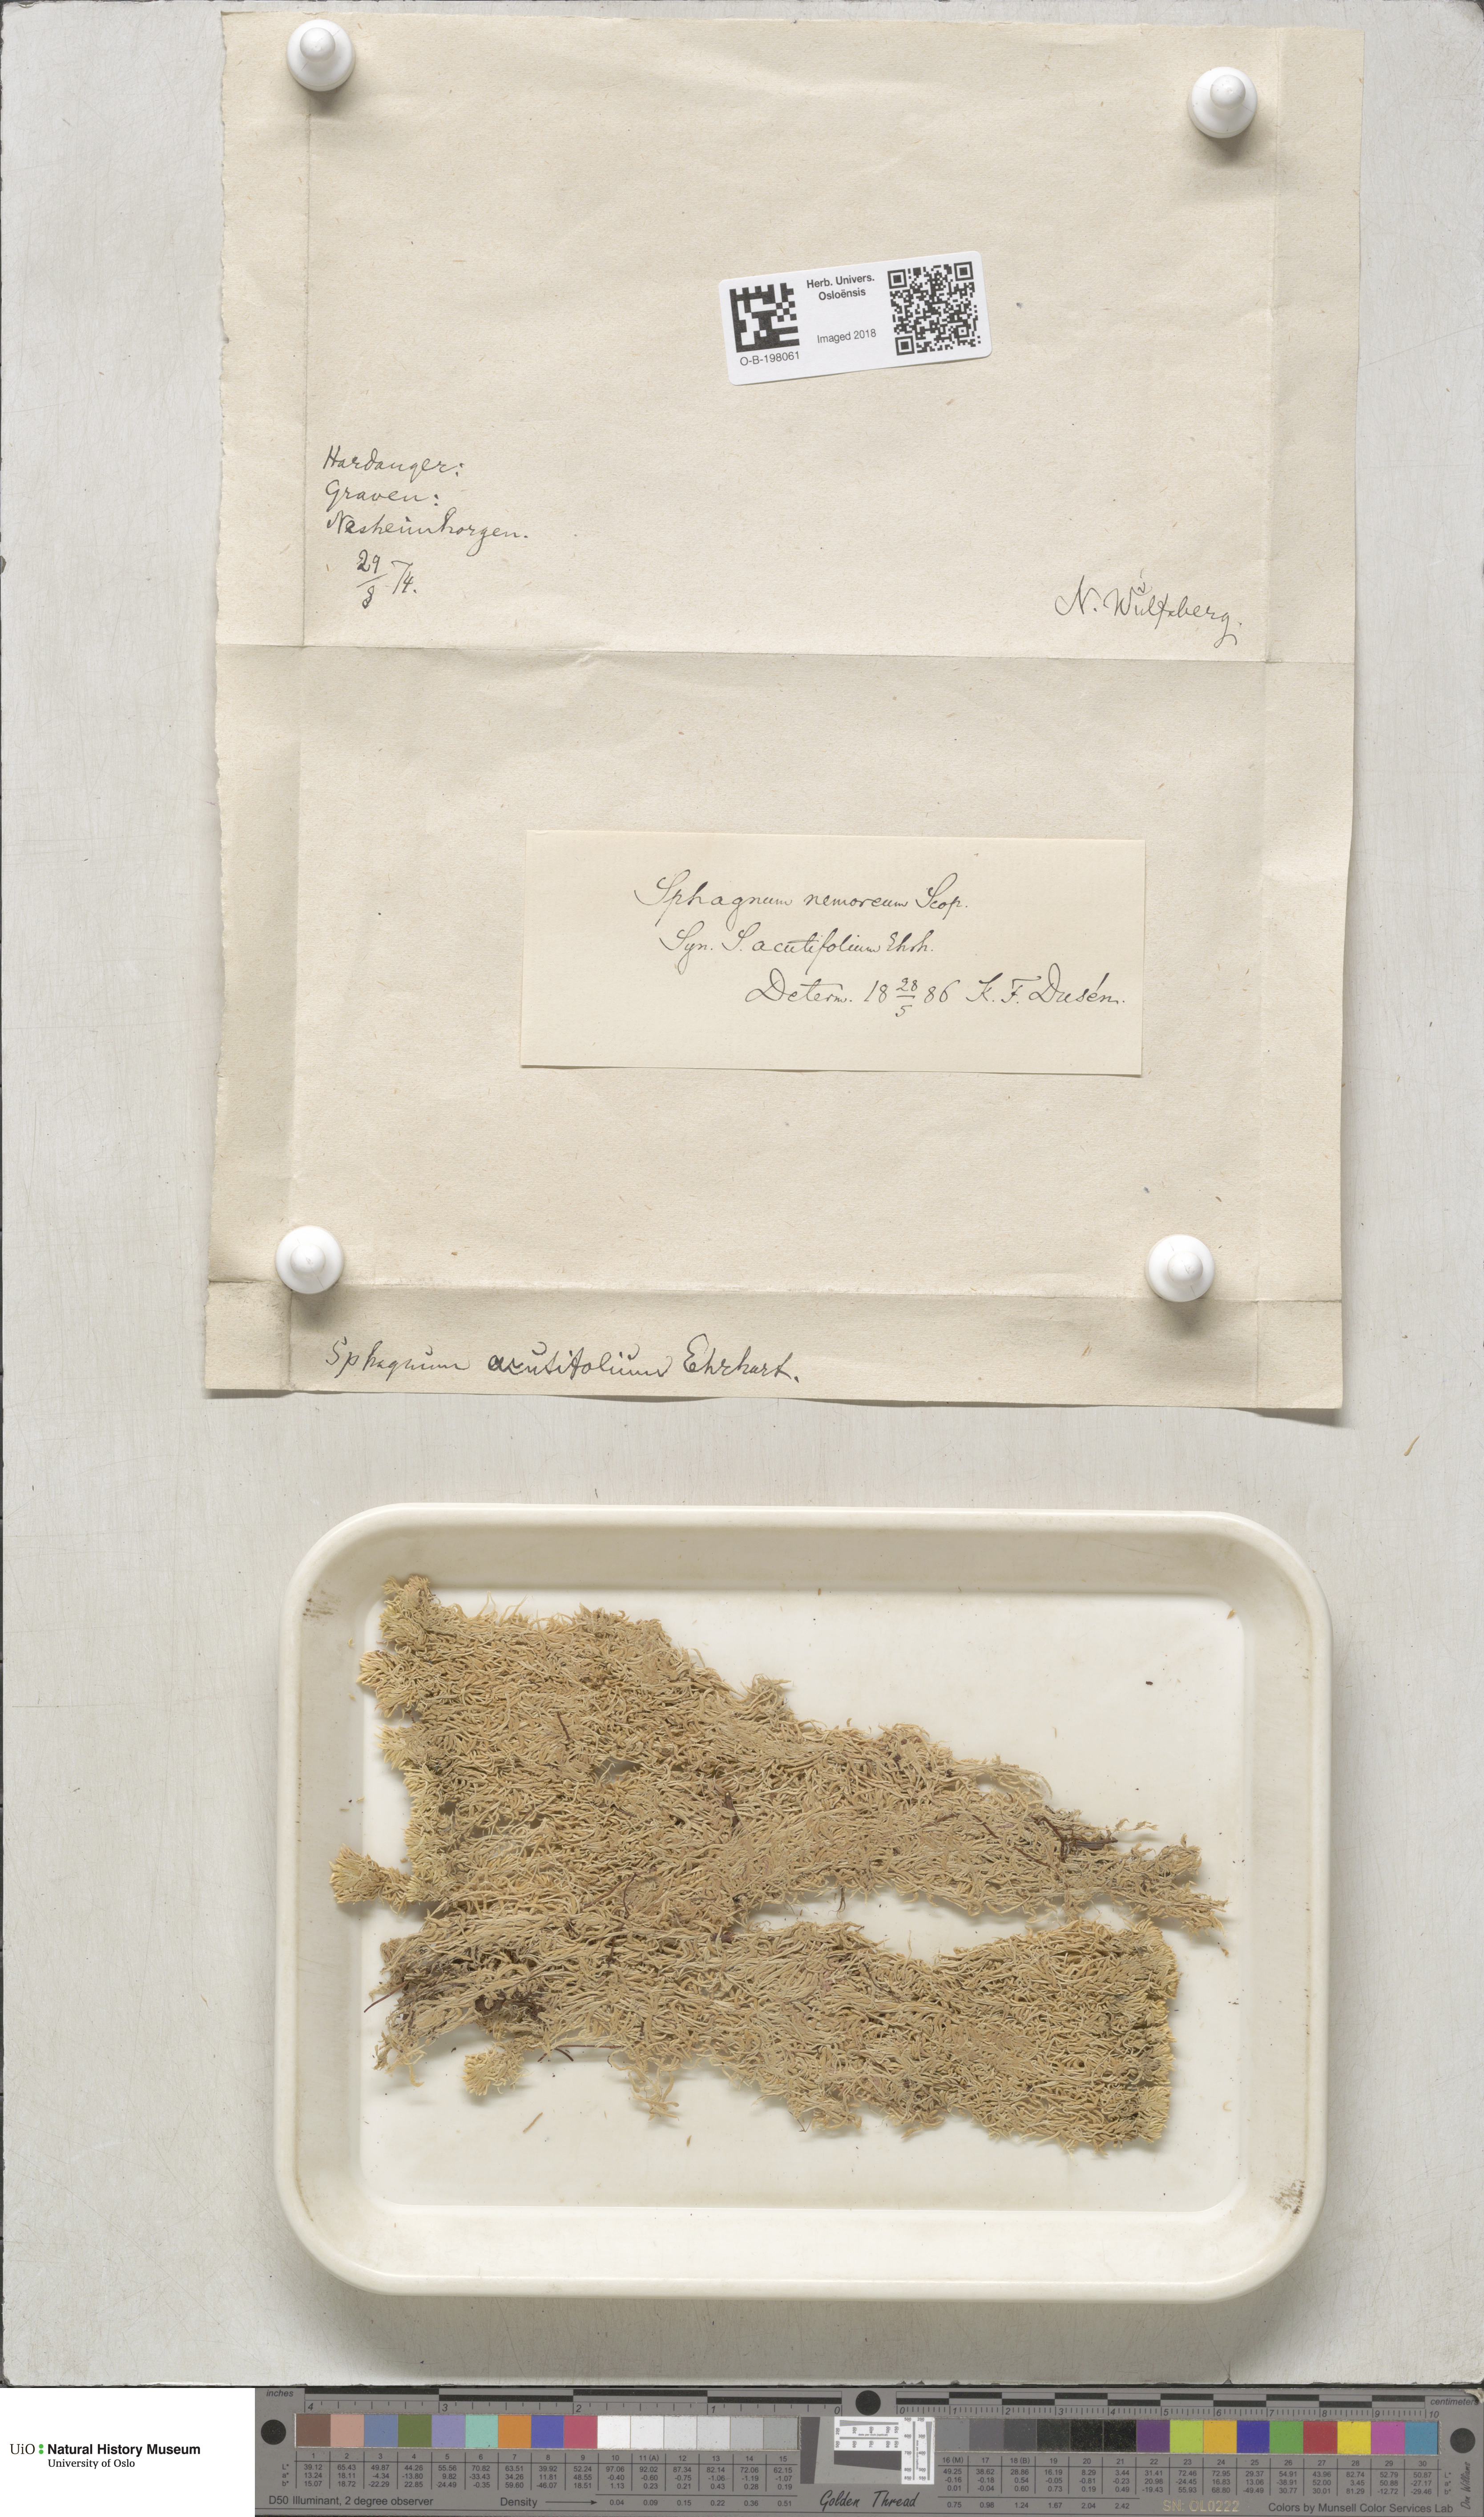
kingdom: Plantae
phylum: Bryophyta
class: Sphagnopsida
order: Sphagnales
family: Sphagnaceae
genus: Sphagnum
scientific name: Sphagnum capillifolium
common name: Small red peat moss
